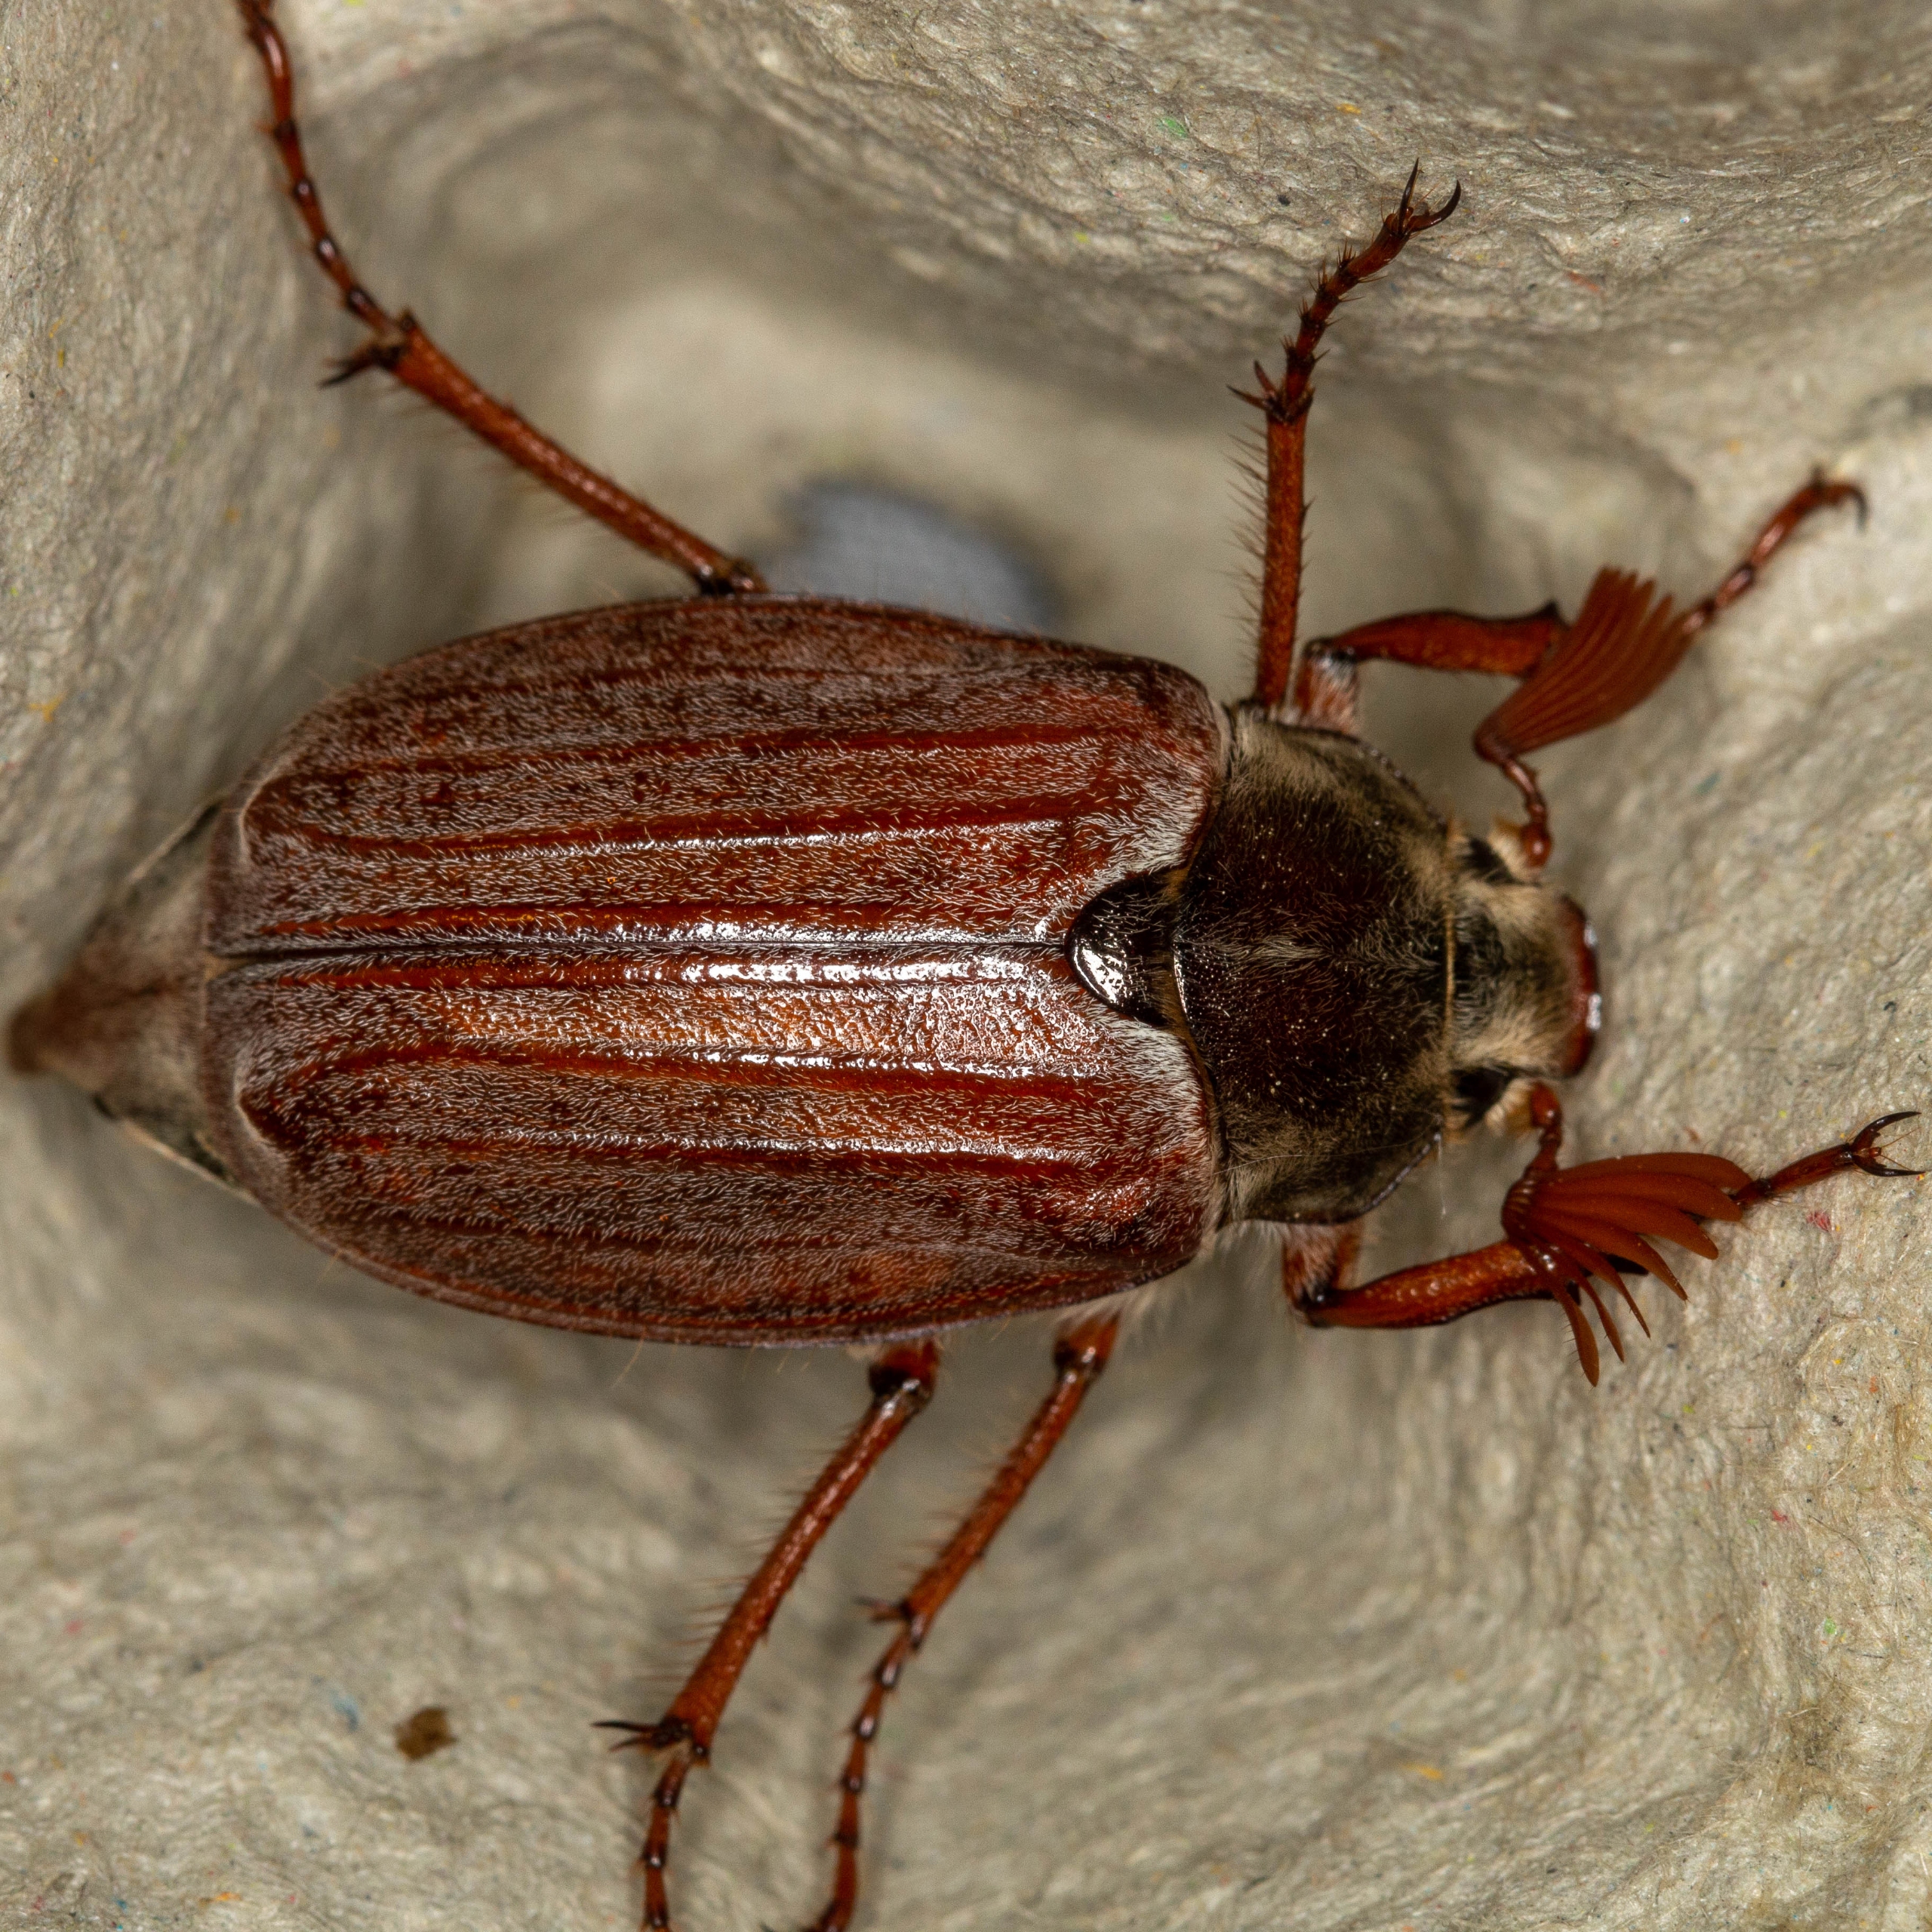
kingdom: Animalia
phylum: Arthropoda
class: Insecta
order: Coleoptera
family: Scarabaeidae
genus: Melolontha
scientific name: Melolontha melolontha
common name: Almindelig oldenborre
